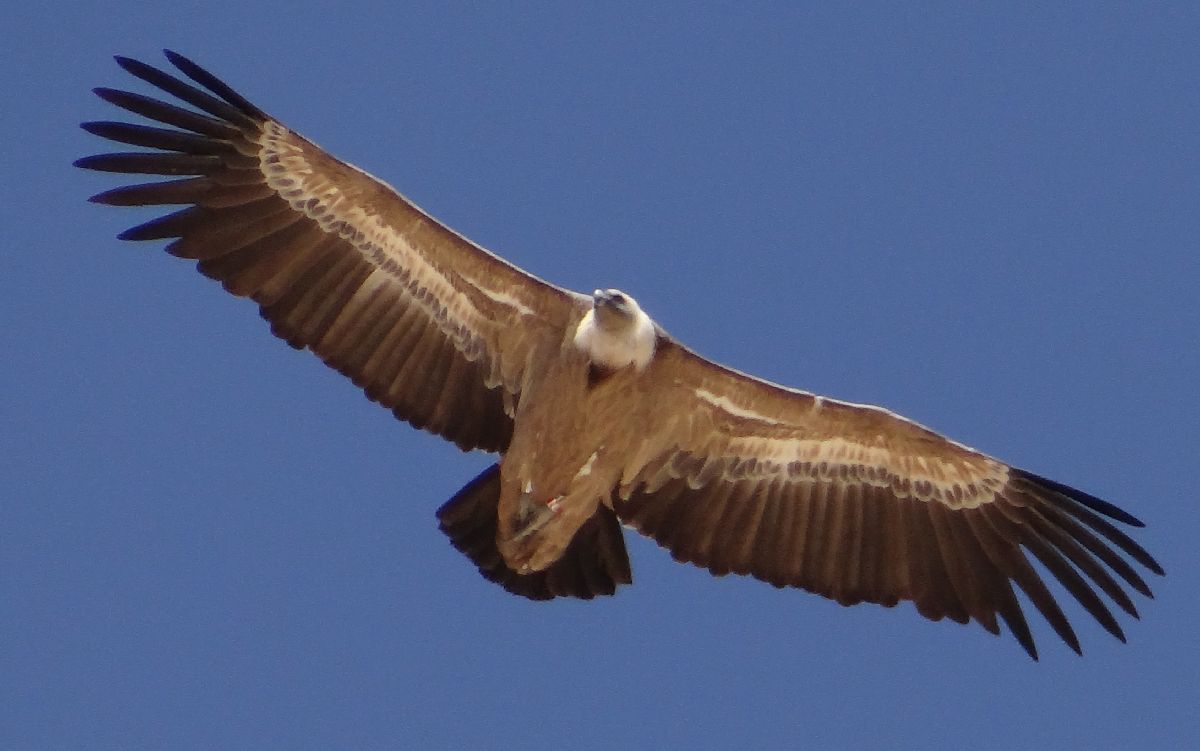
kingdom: Animalia
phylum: Chordata
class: Aves
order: Accipitriformes
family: Accipitridae
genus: Gyps
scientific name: Gyps fulvus
